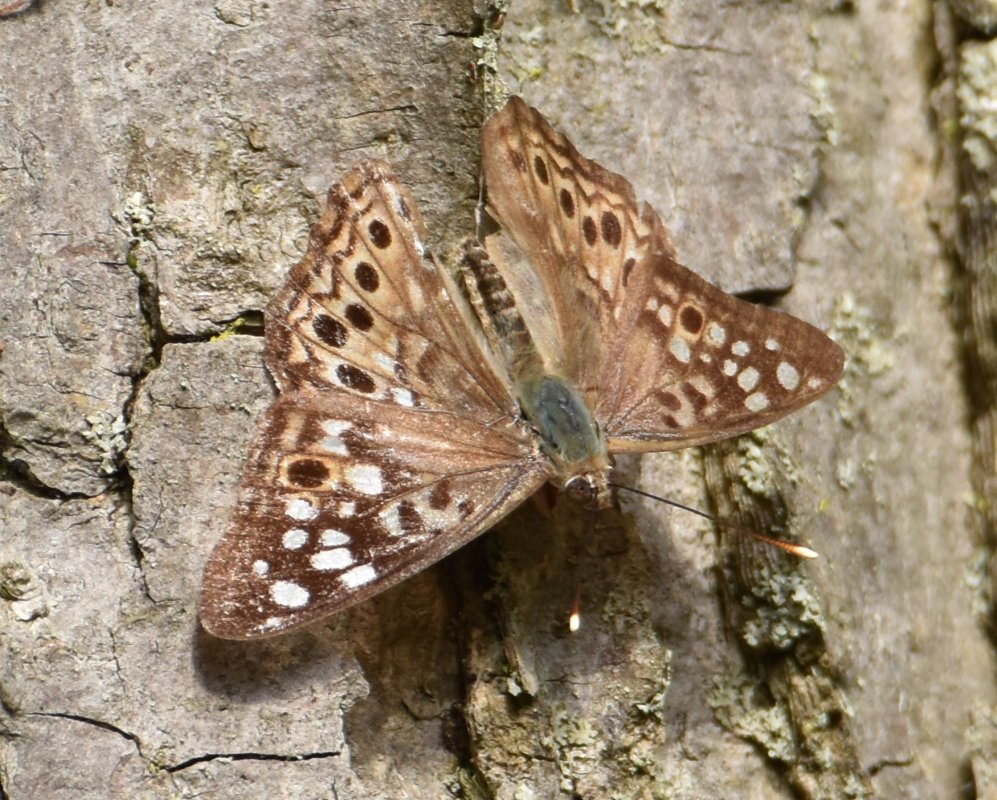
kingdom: Animalia
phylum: Arthropoda
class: Insecta
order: Lepidoptera
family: Nymphalidae
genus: Asterocampa
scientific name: Asterocampa celtis
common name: Hackberry Emperor
